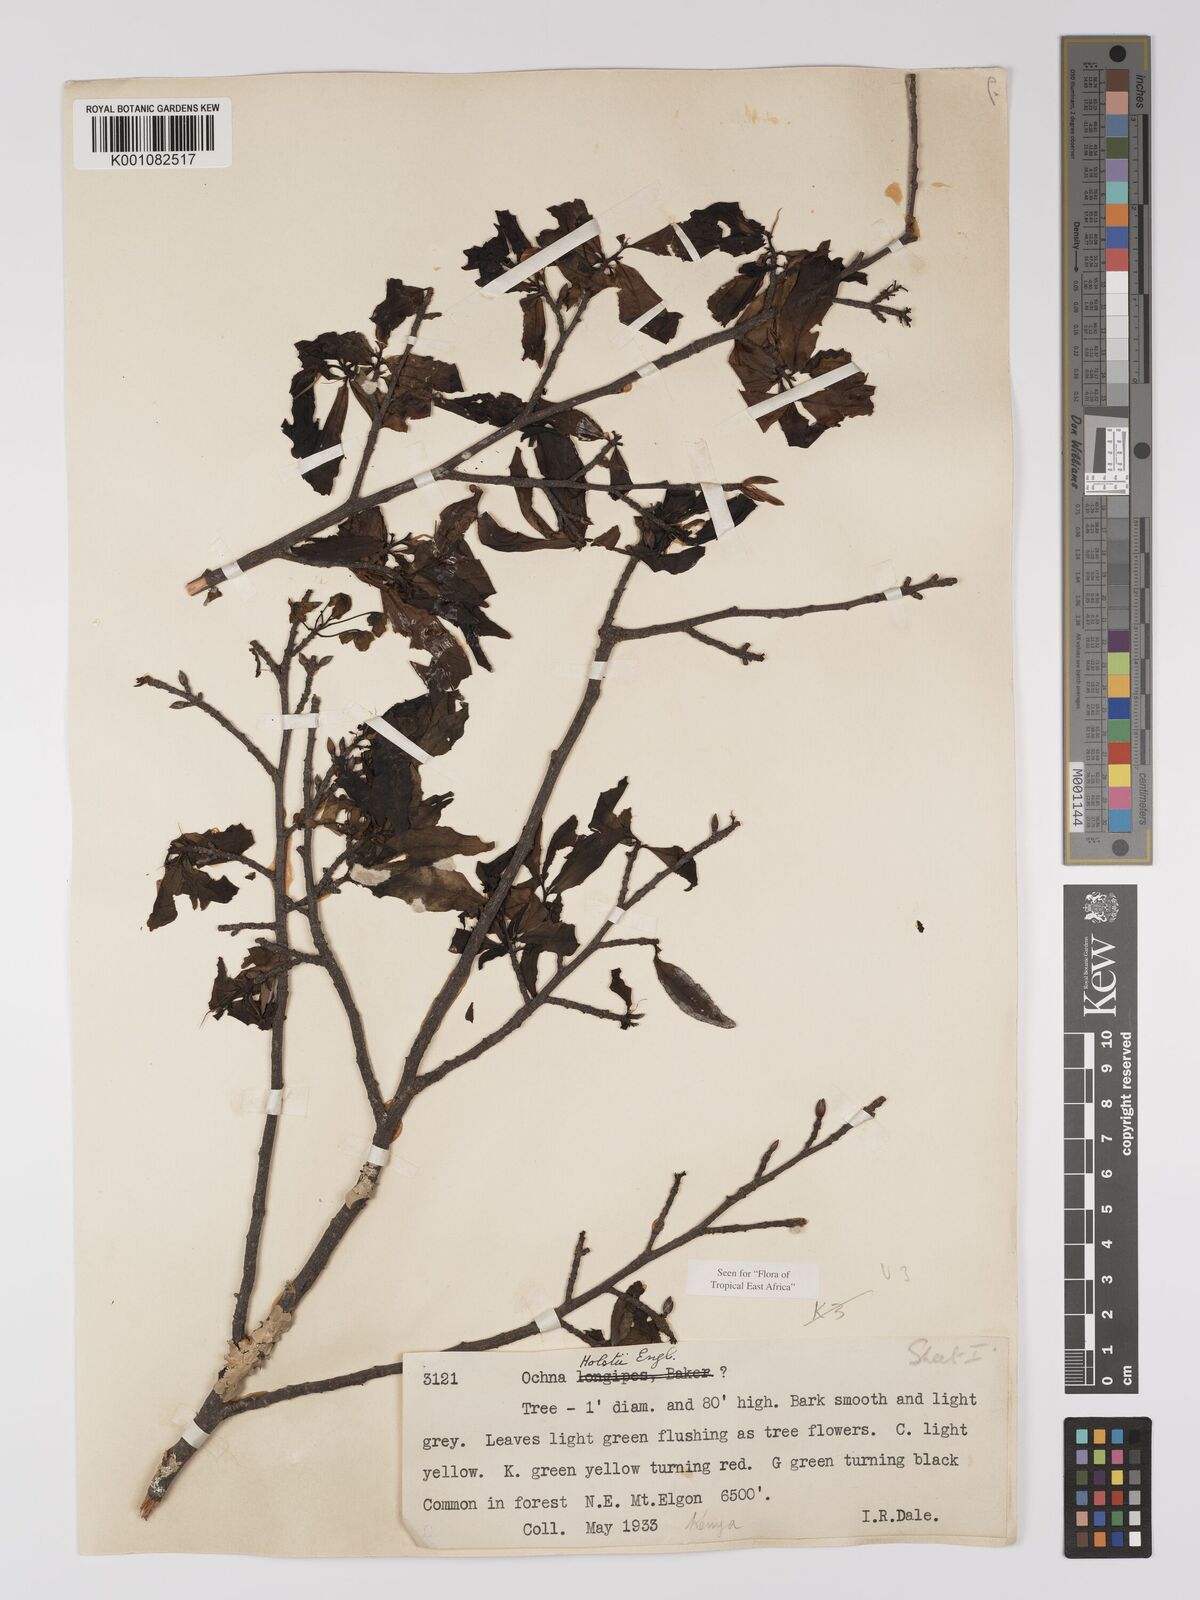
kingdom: Plantae
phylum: Tracheophyta
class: Magnoliopsida
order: Malpighiales
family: Ochnaceae
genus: Ochna
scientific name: Ochna holstii
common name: Red ironwood
